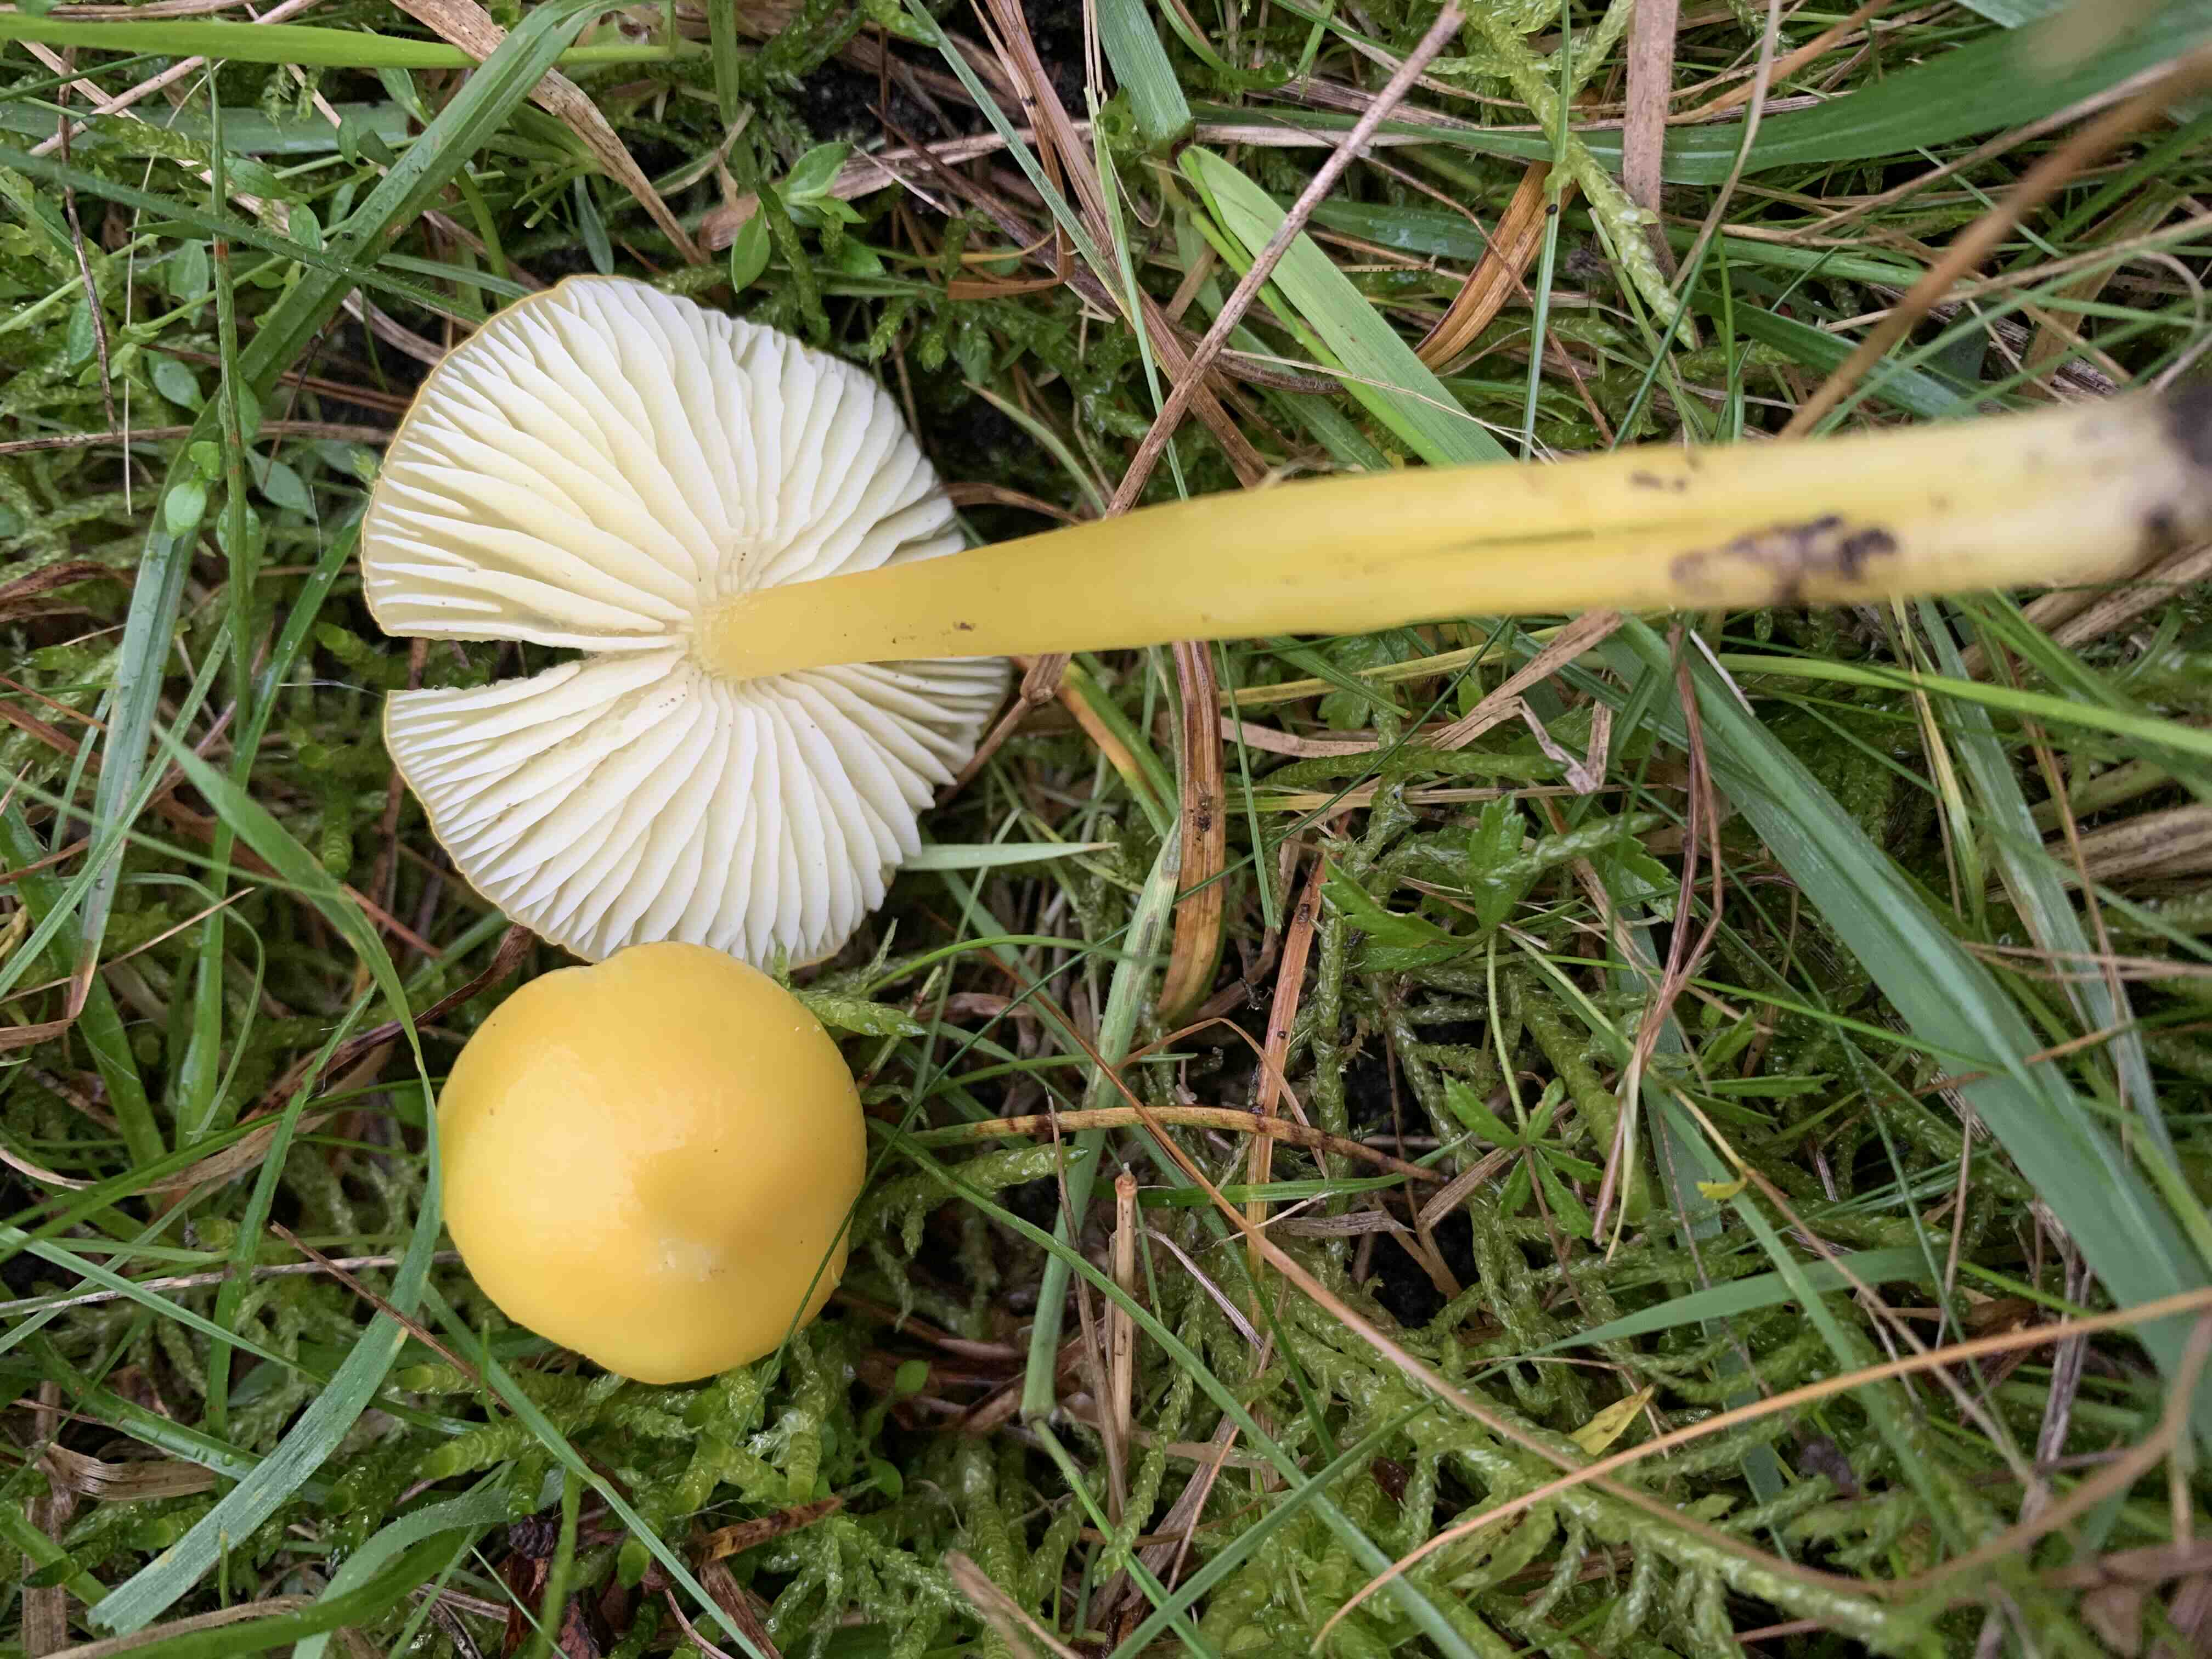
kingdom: Fungi
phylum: Basidiomycota
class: Agaricomycetes
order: Agaricales
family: Hygrophoraceae
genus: Hygrocybe
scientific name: Hygrocybe chlorophana
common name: gul vokshat
